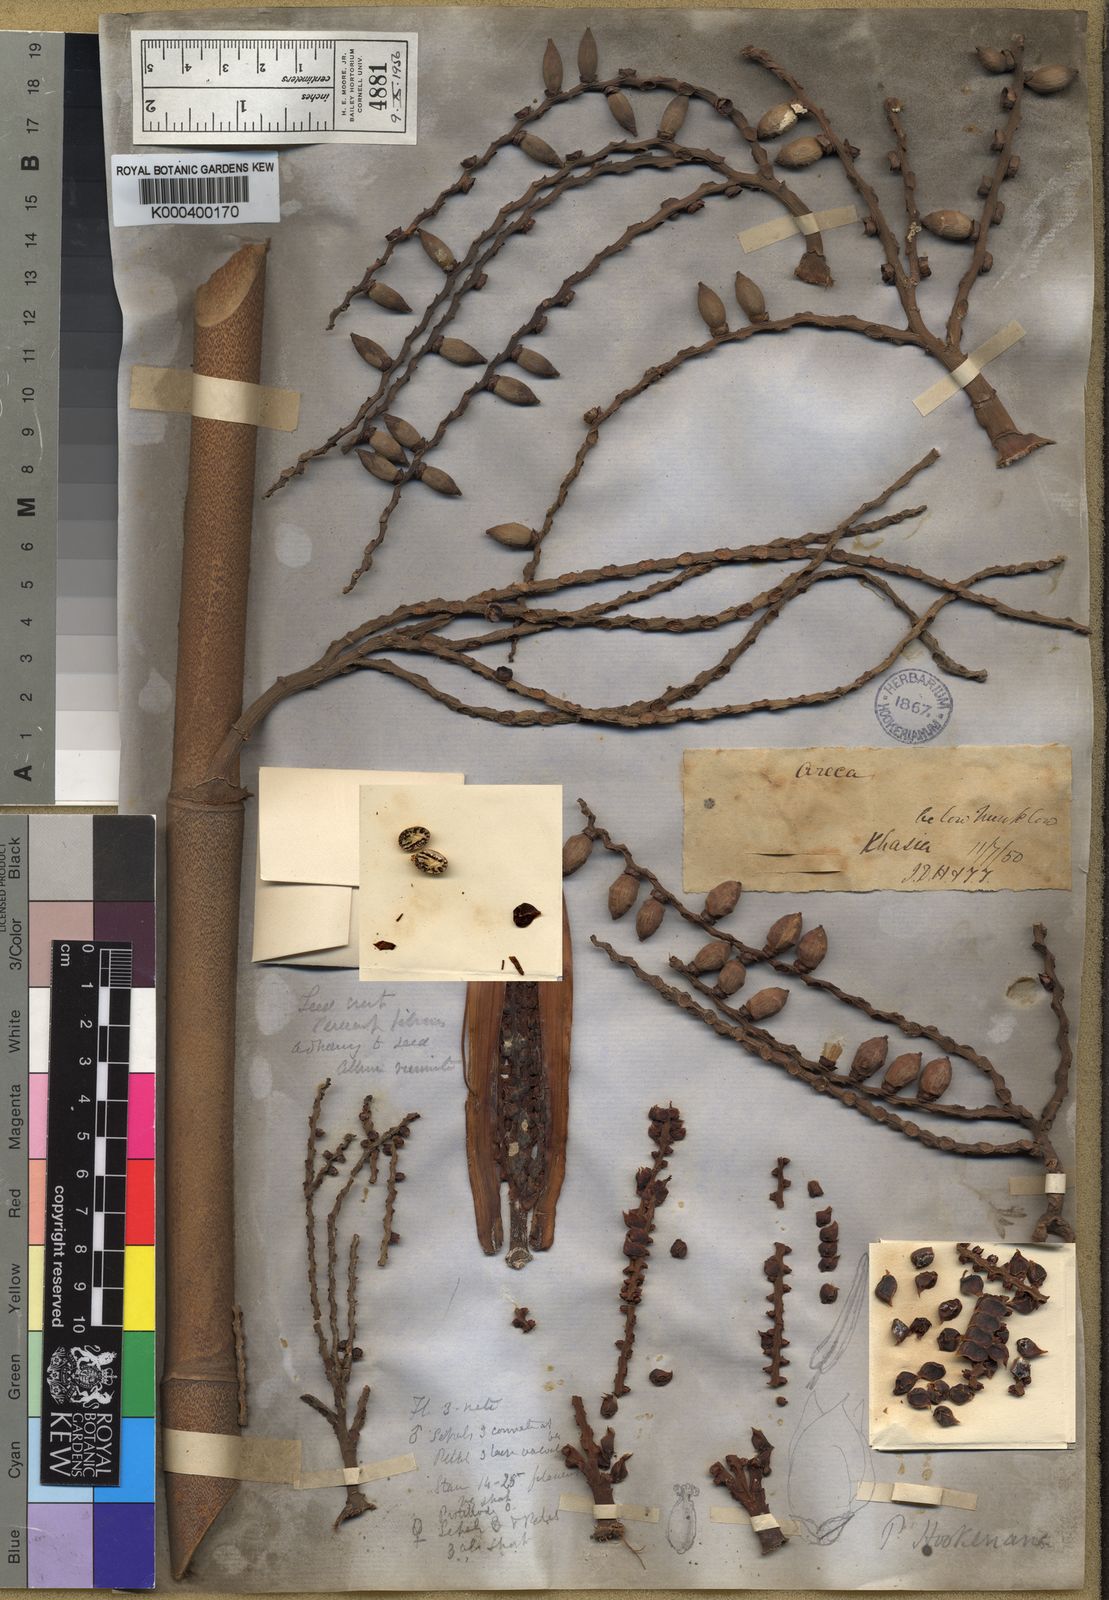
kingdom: Plantae
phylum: Tracheophyta
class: Liliopsida
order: Arecales
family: Arecaceae
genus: Pinanga
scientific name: Pinanga sylvestris
